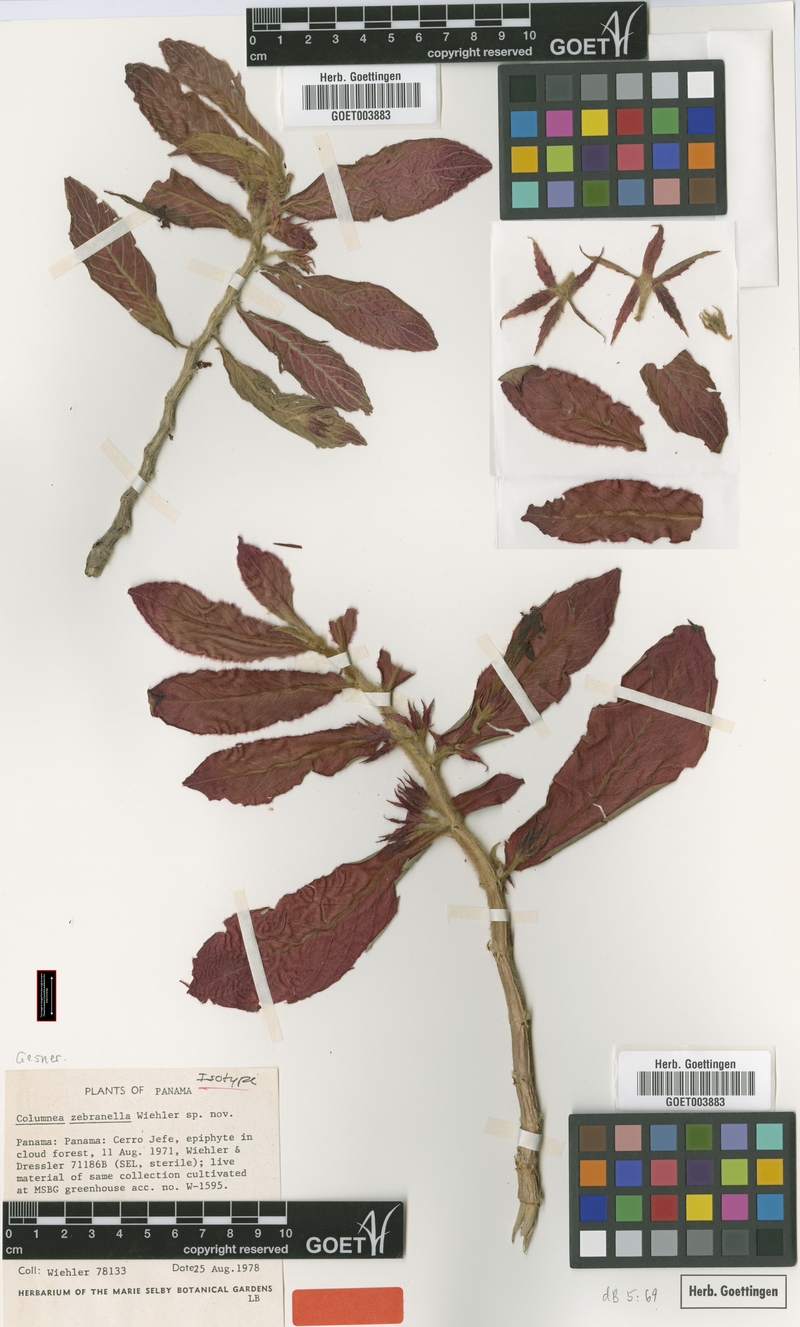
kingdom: Plantae
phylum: Tracheophyta
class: Magnoliopsida
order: Lamiales
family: Gesneriaceae
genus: Columnea
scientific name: Columnea zebranella
